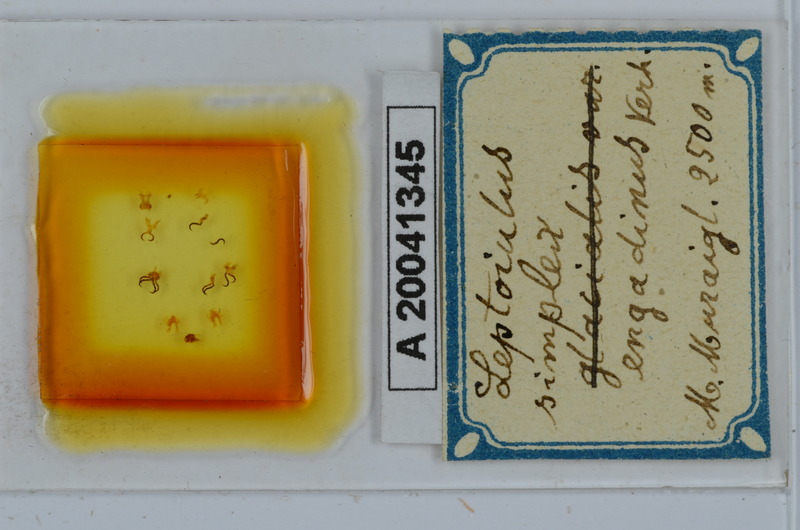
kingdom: Animalia
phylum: Arthropoda
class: Diplopoda
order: Julida
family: Julidae
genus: Leptoiulus
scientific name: Leptoiulus simplex
